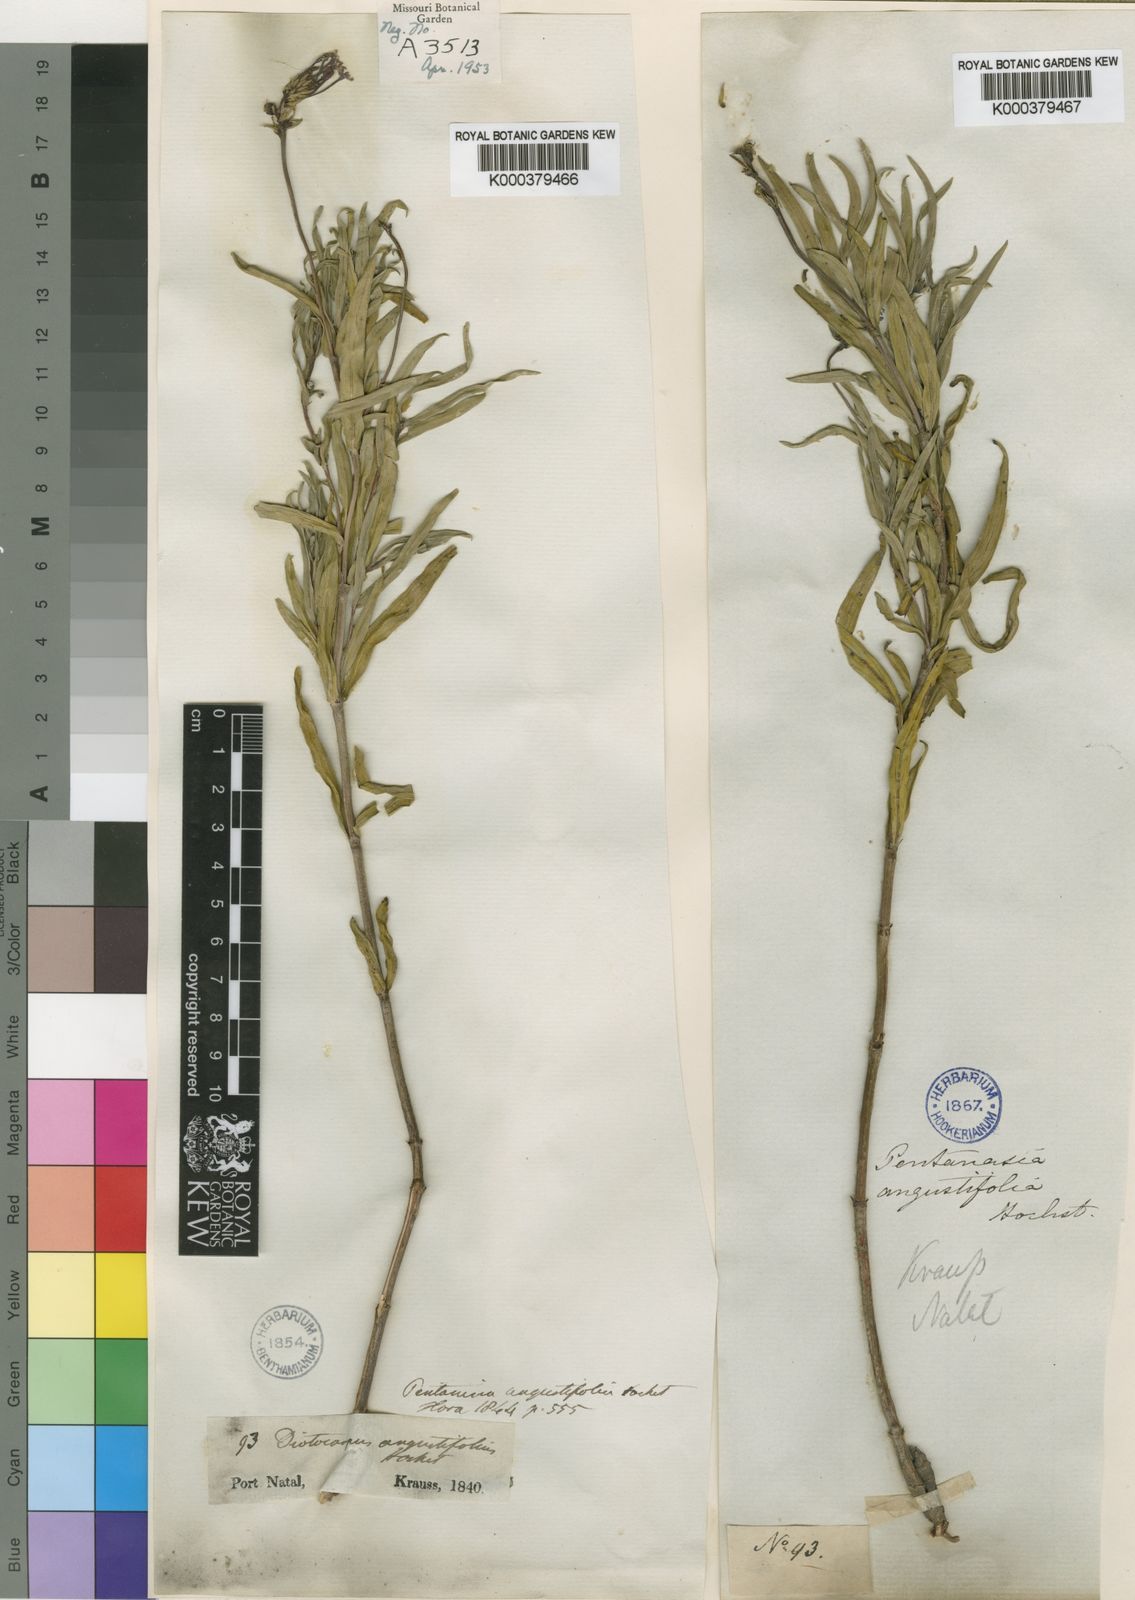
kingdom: Plantae
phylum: Tracheophyta
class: Magnoliopsida
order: Gentianales
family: Rubiaceae
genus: Pentanisia
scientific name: Pentanisia angustifolia
